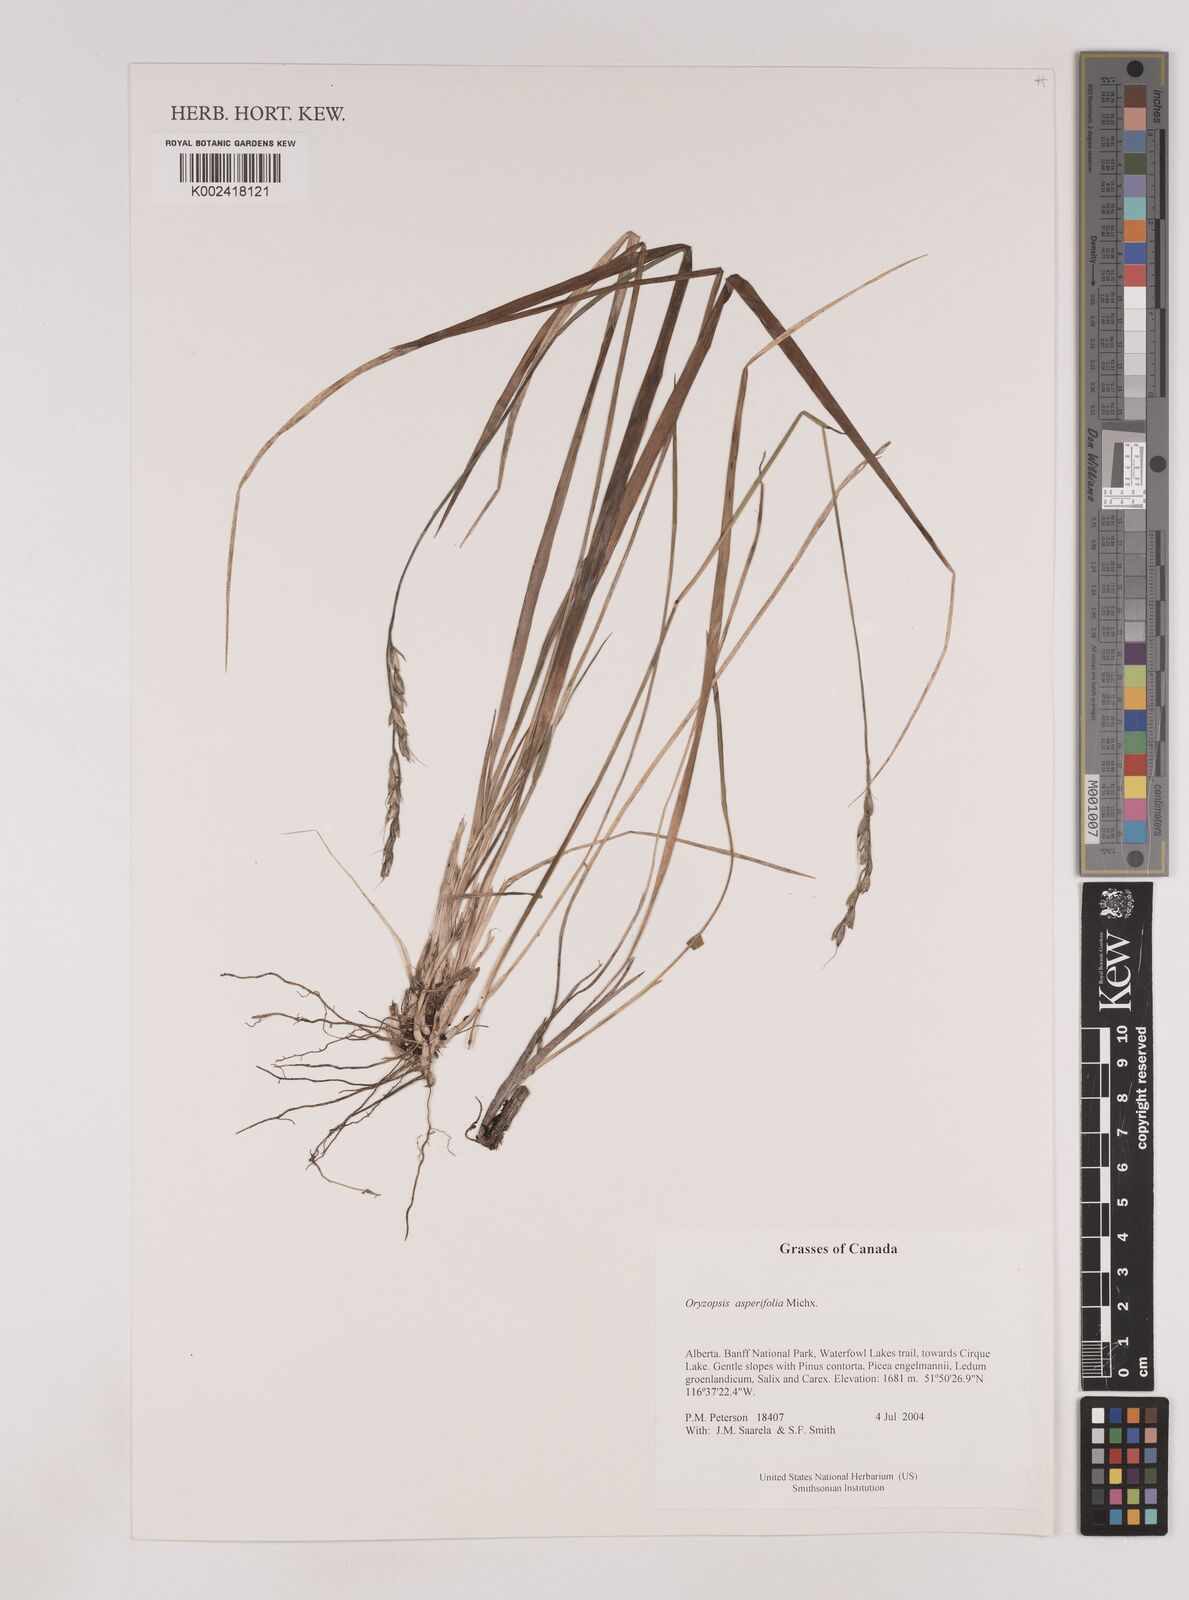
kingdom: Plantae
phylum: Tracheophyta
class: Liliopsida
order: Poales
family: Poaceae
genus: Oryzopsis
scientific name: Oryzopsis asperifolia
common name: Rough-leaved mountain rice
